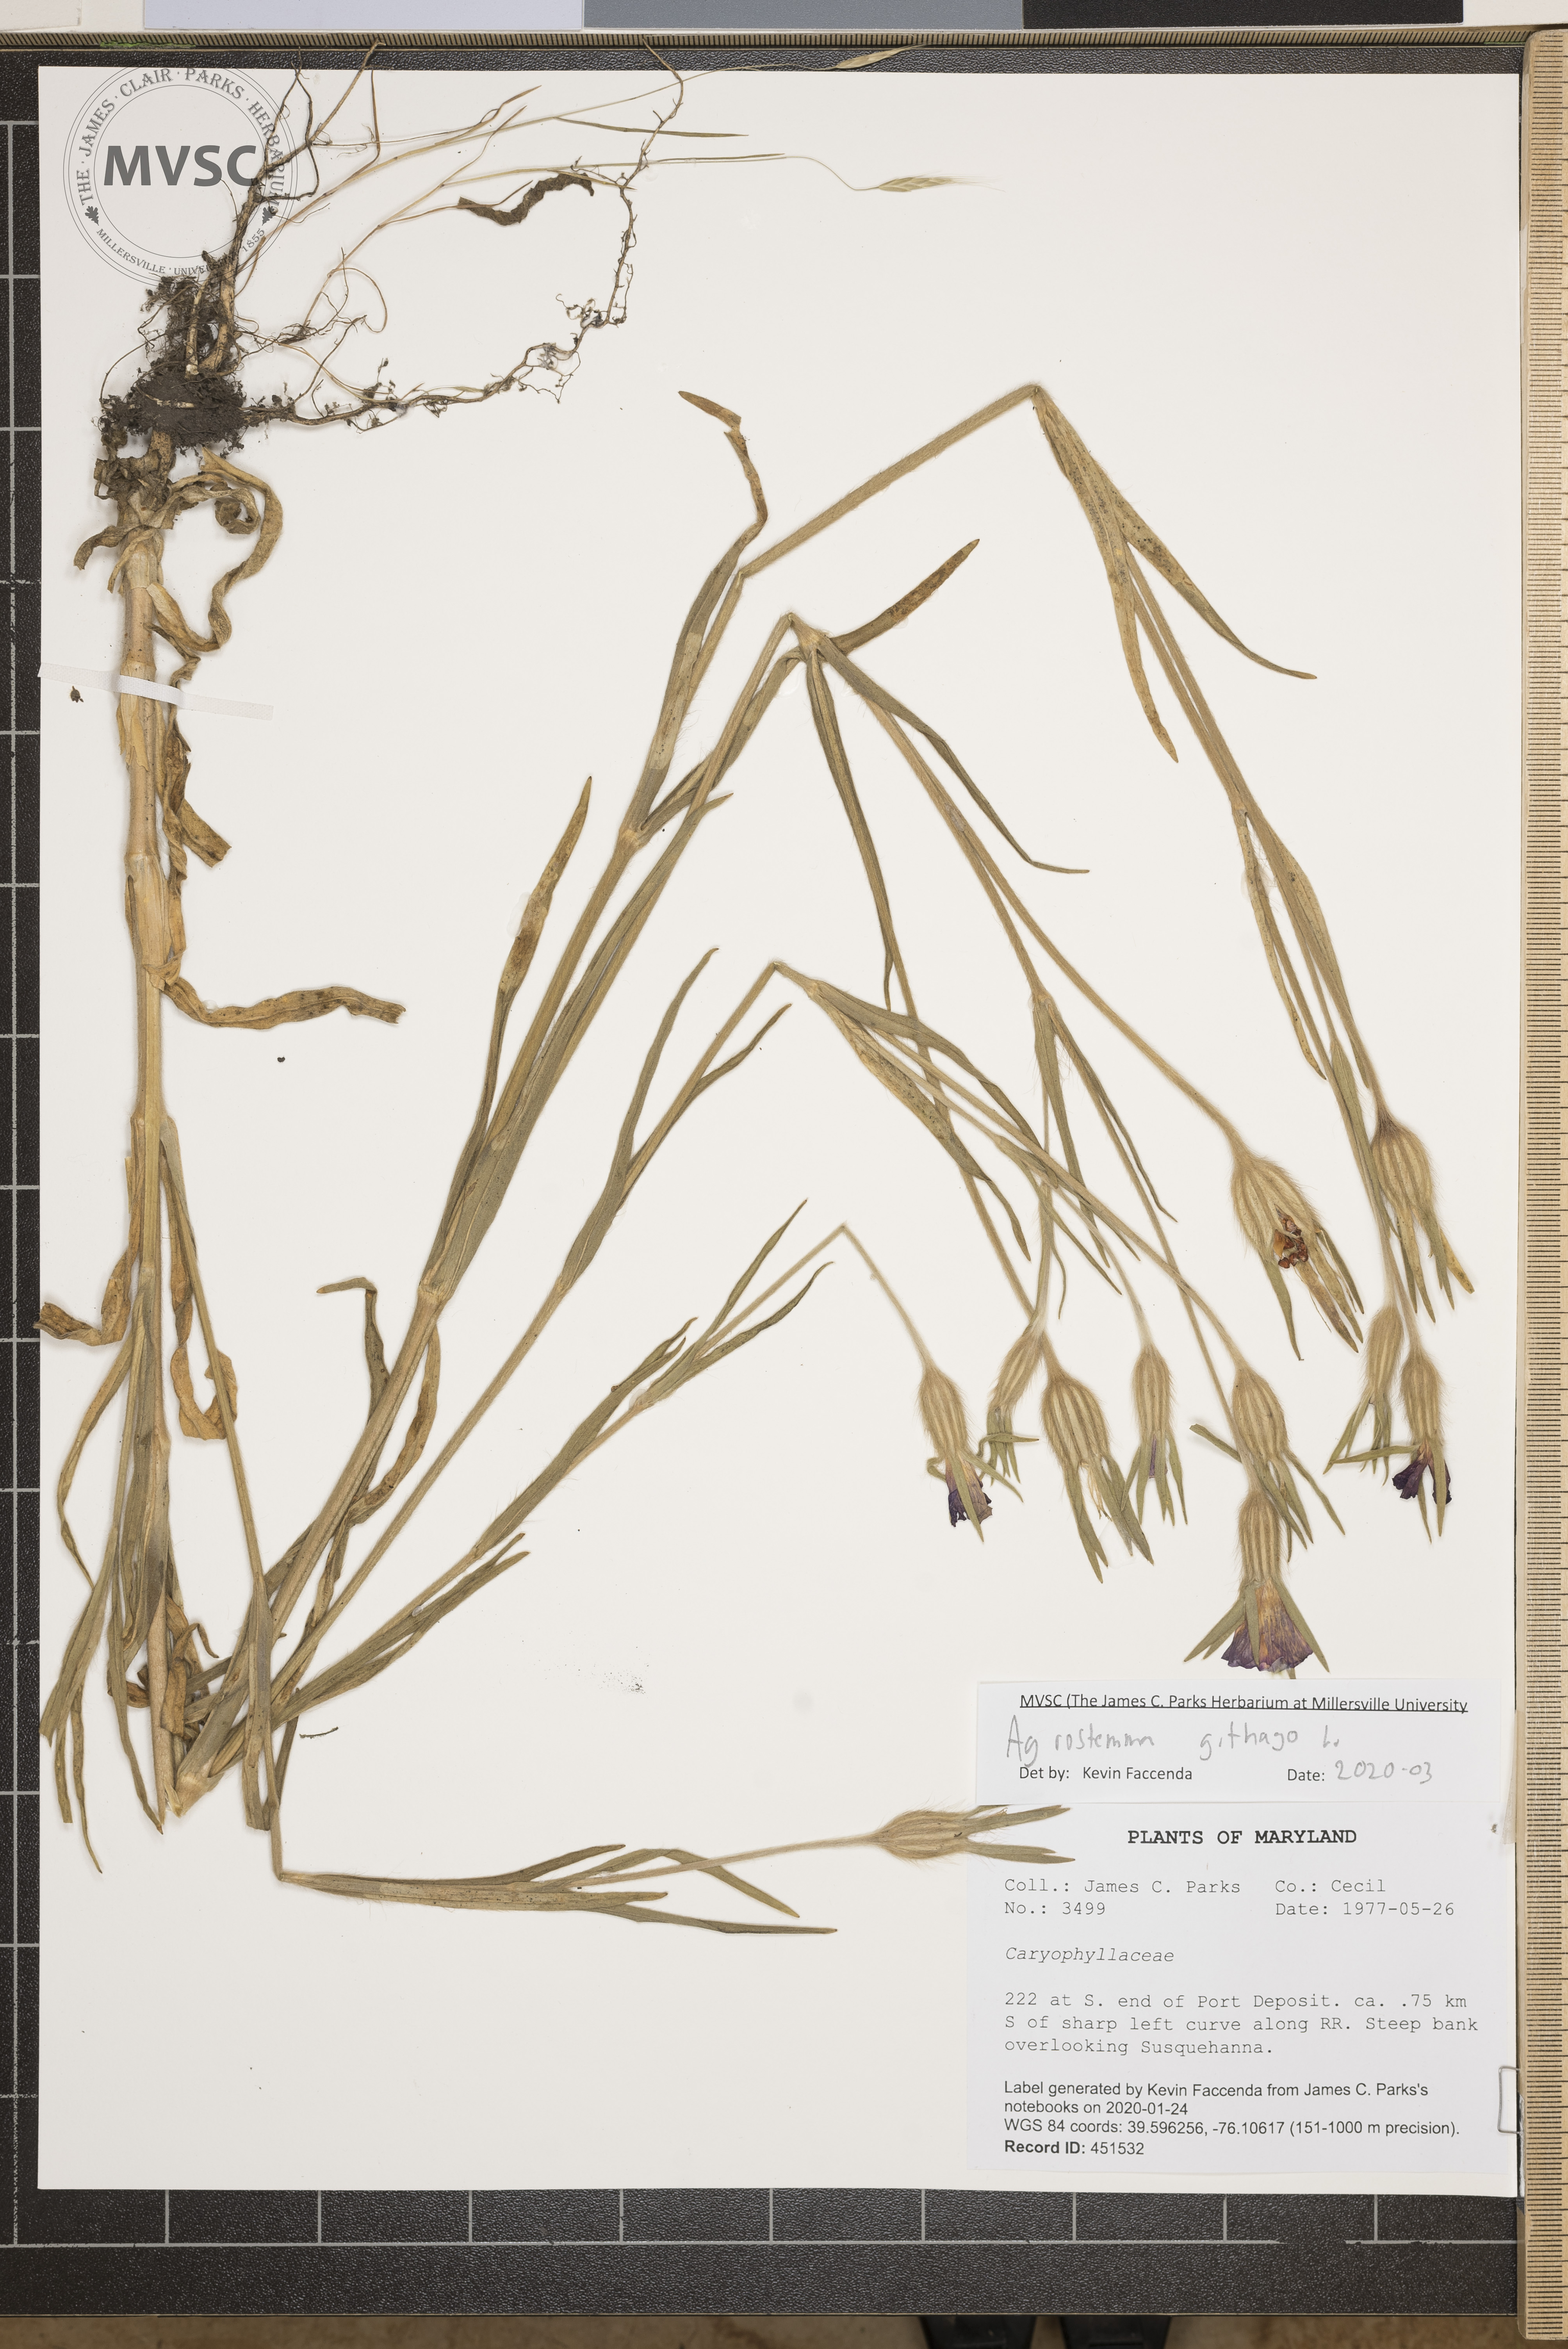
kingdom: Plantae
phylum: Tracheophyta
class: Magnoliopsida
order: Caryophyllales
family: Caryophyllaceae
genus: Agrostemma
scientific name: Agrostemma githago
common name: Common corncockle
